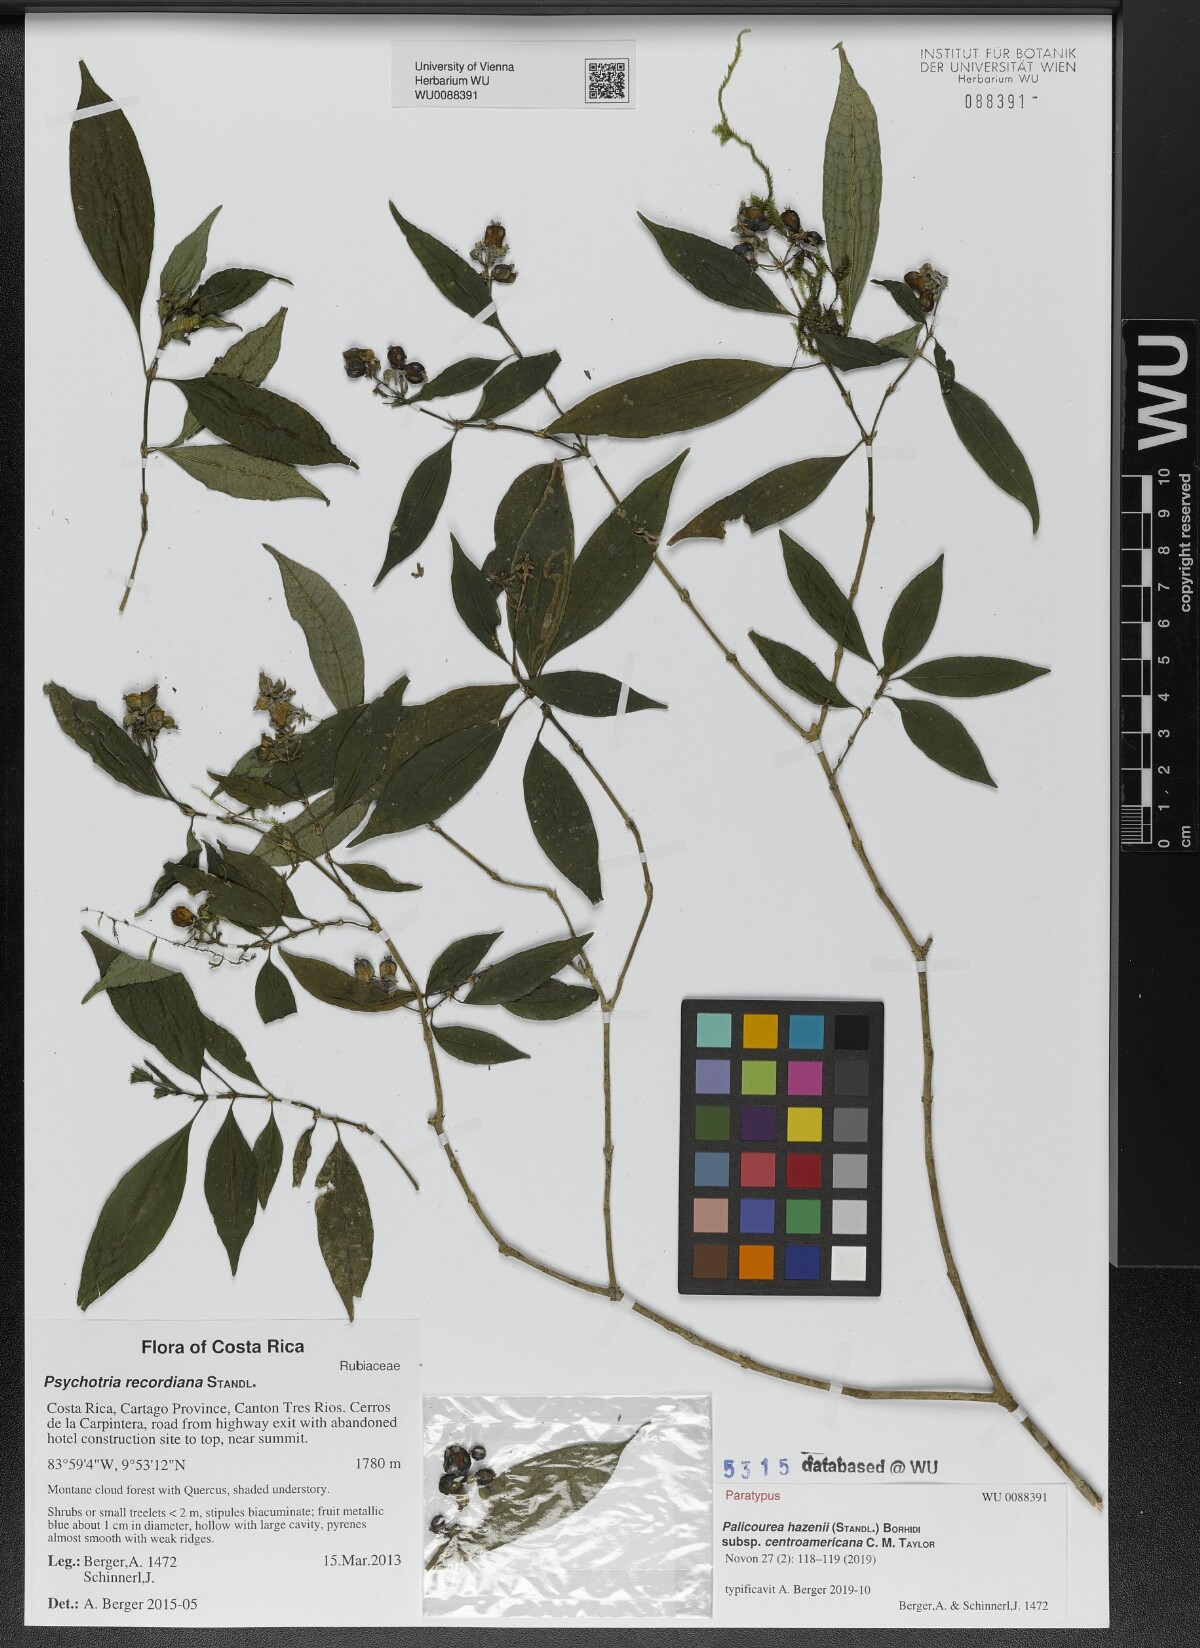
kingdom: Plantae
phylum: Tracheophyta
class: Magnoliopsida
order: Gentianales
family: Rubiaceae
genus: Palicourea
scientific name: Palicourea hazenii
